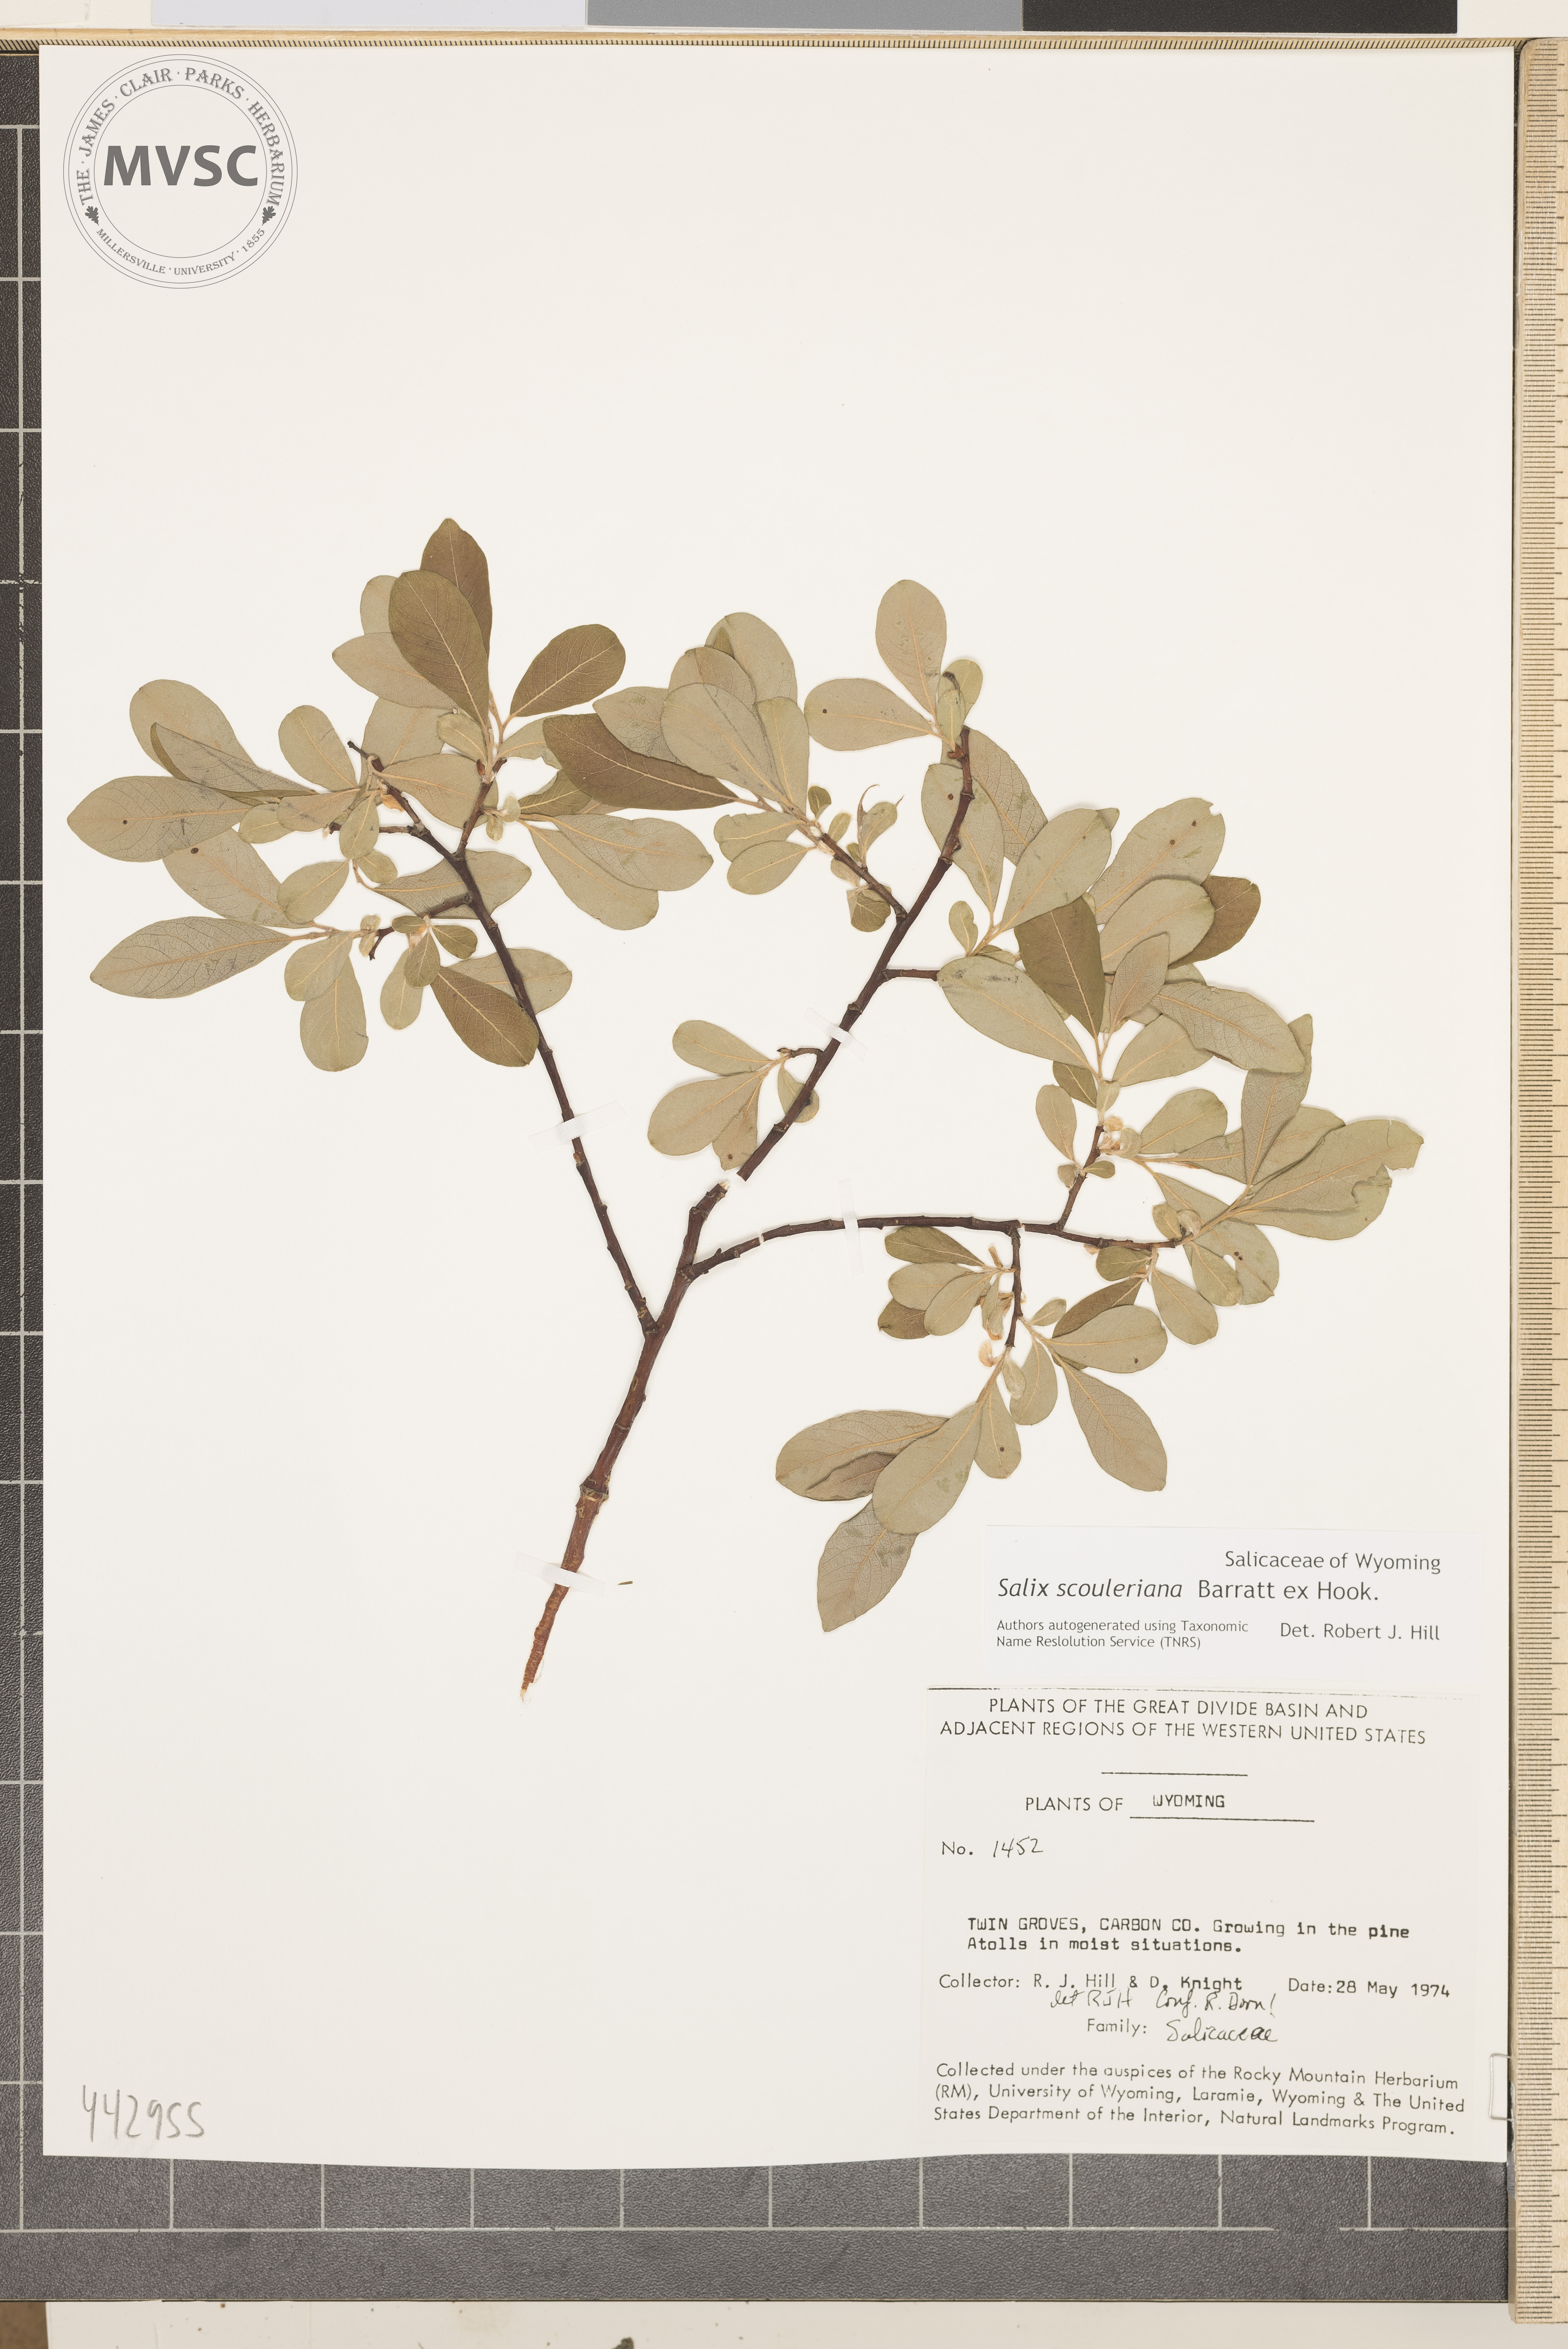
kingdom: Plantae
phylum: Tracheophyta
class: Magnoliopsida
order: Malpighiales
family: Salicaceae
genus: Salix
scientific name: Salix scouleriana
